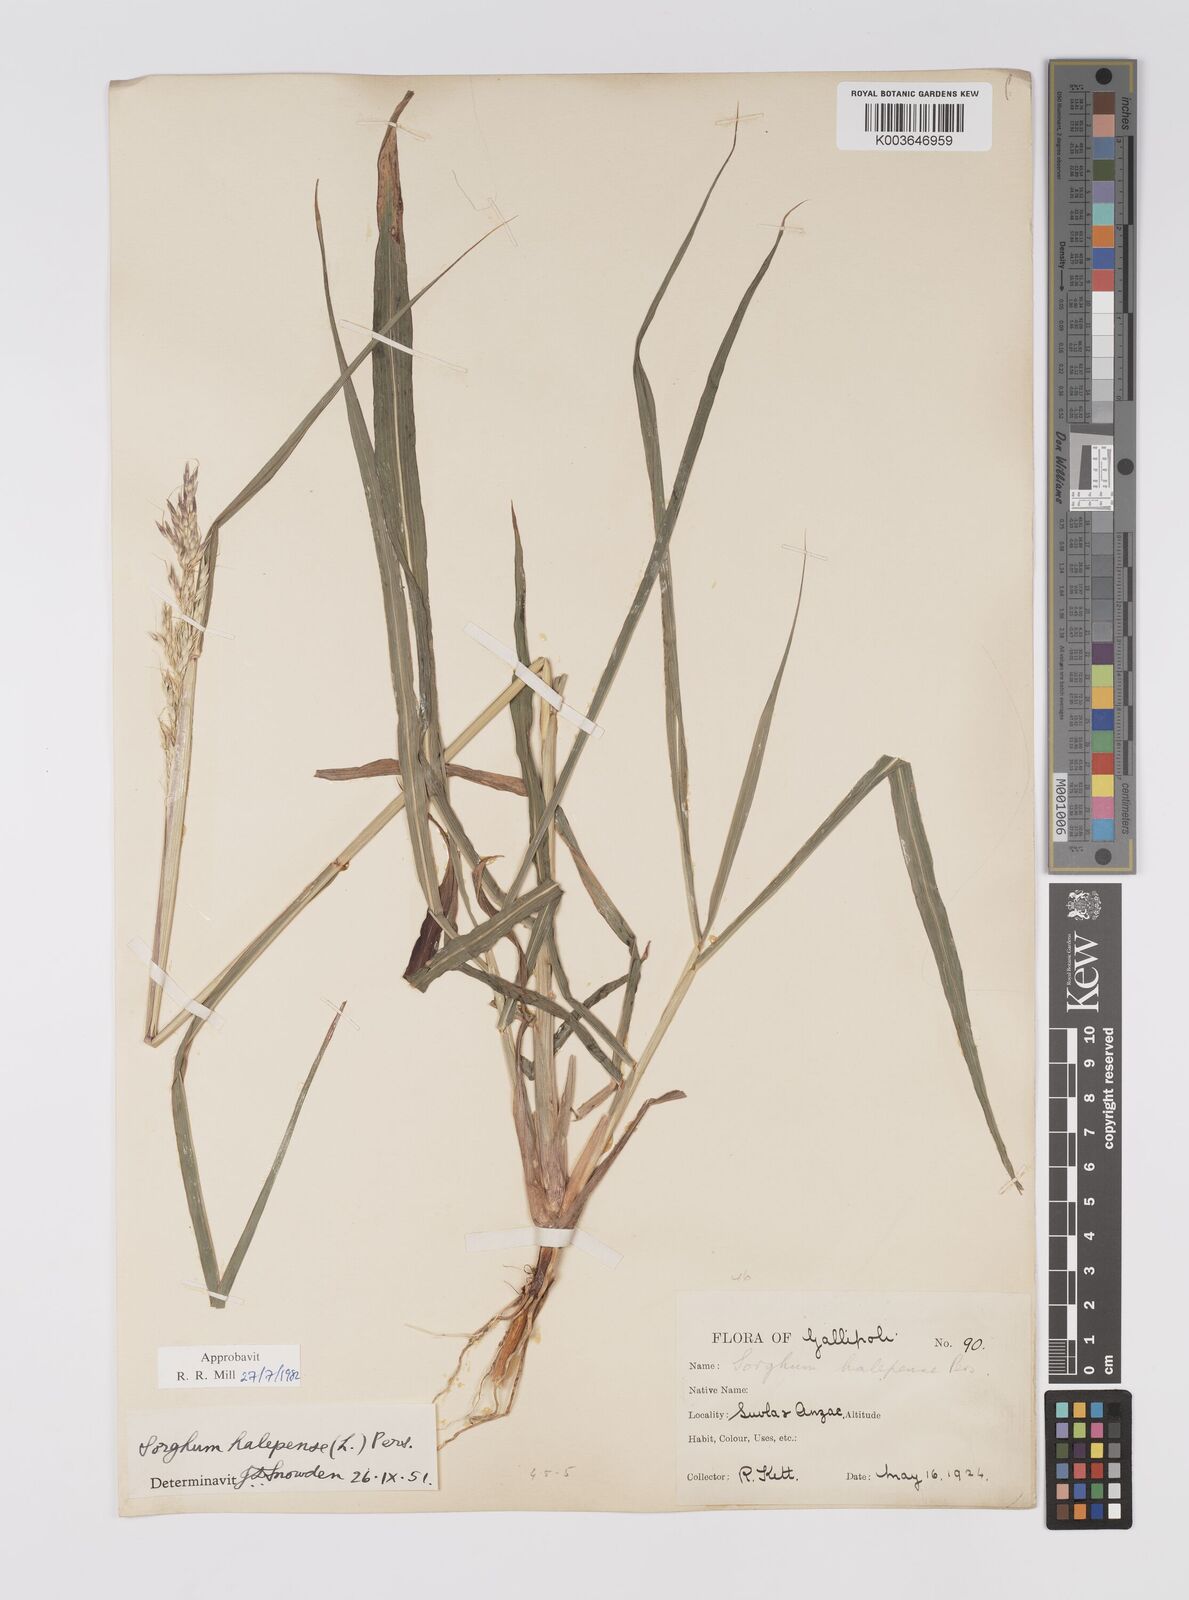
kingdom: Plantae
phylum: Tracheophyta
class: Liliopsida
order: Poales
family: Poaceae
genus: Sorghum
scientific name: Sorghum halepense
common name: Johnson-grass
